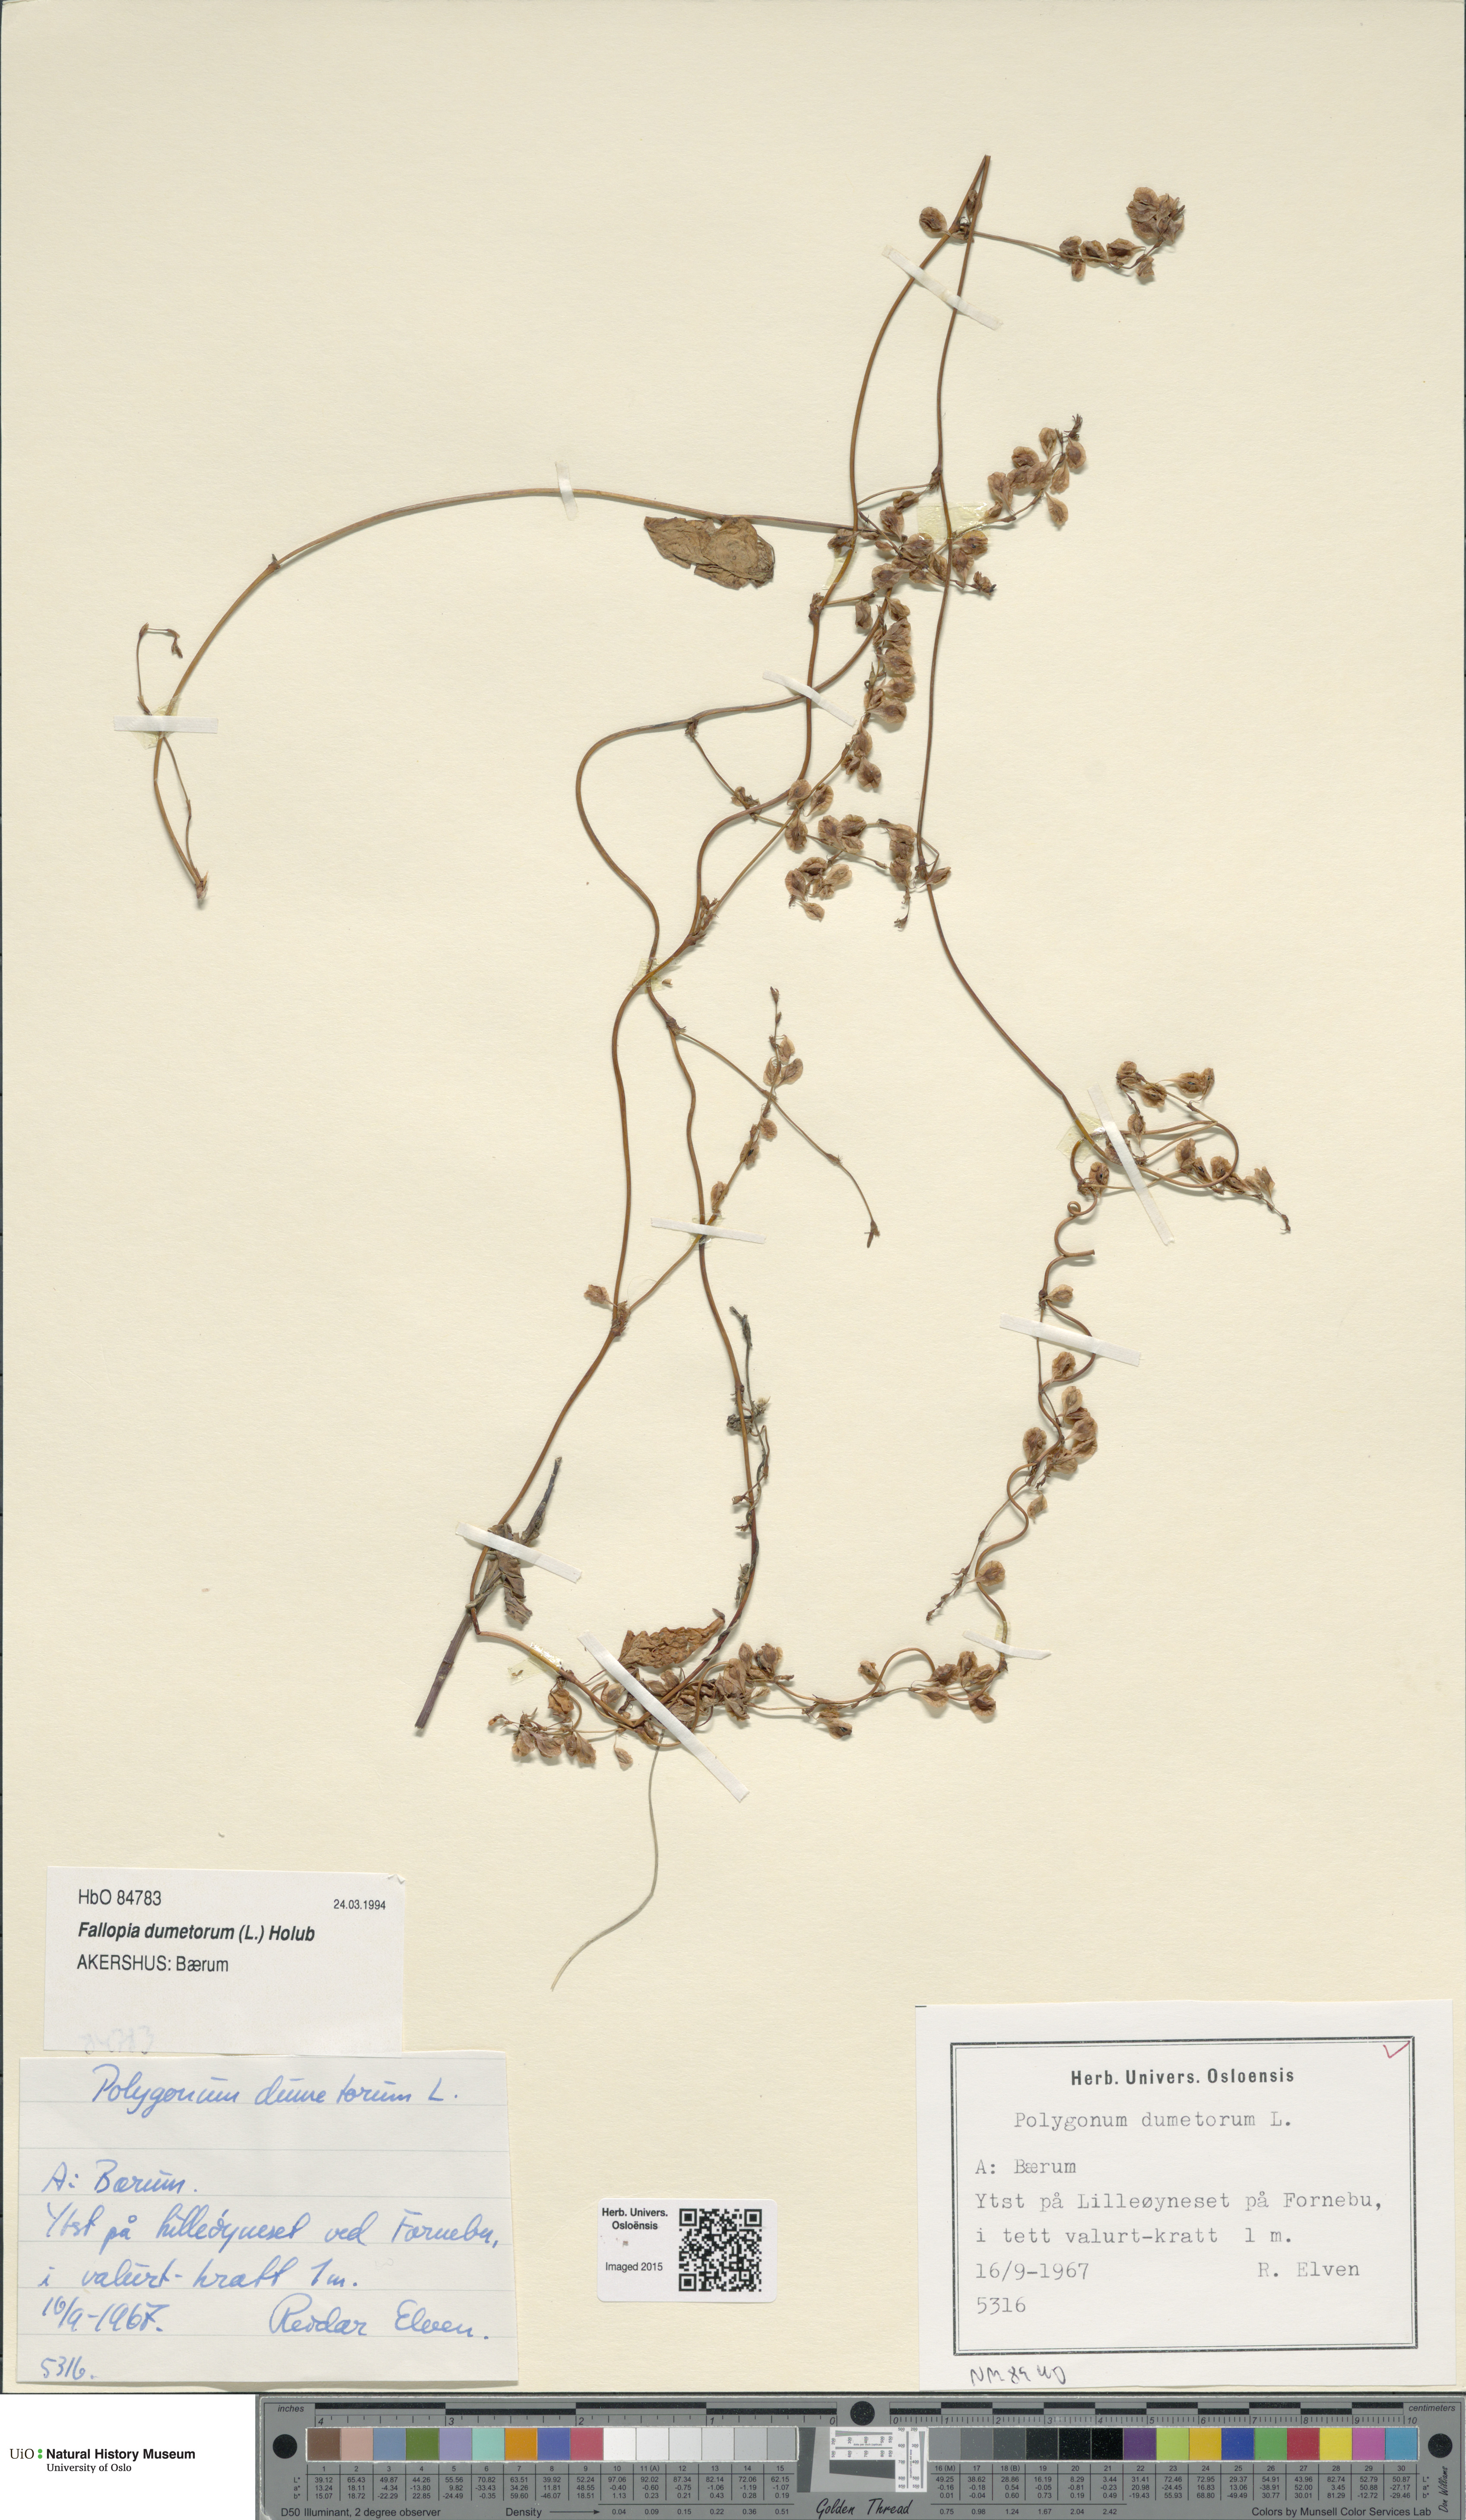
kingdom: Plantae
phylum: Tracheophyta
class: Magnoliopsida
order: Caryophyllales
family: Polygonaceae
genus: Fallopia
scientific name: Fallopia dumetorum
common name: Copse-bindweed
